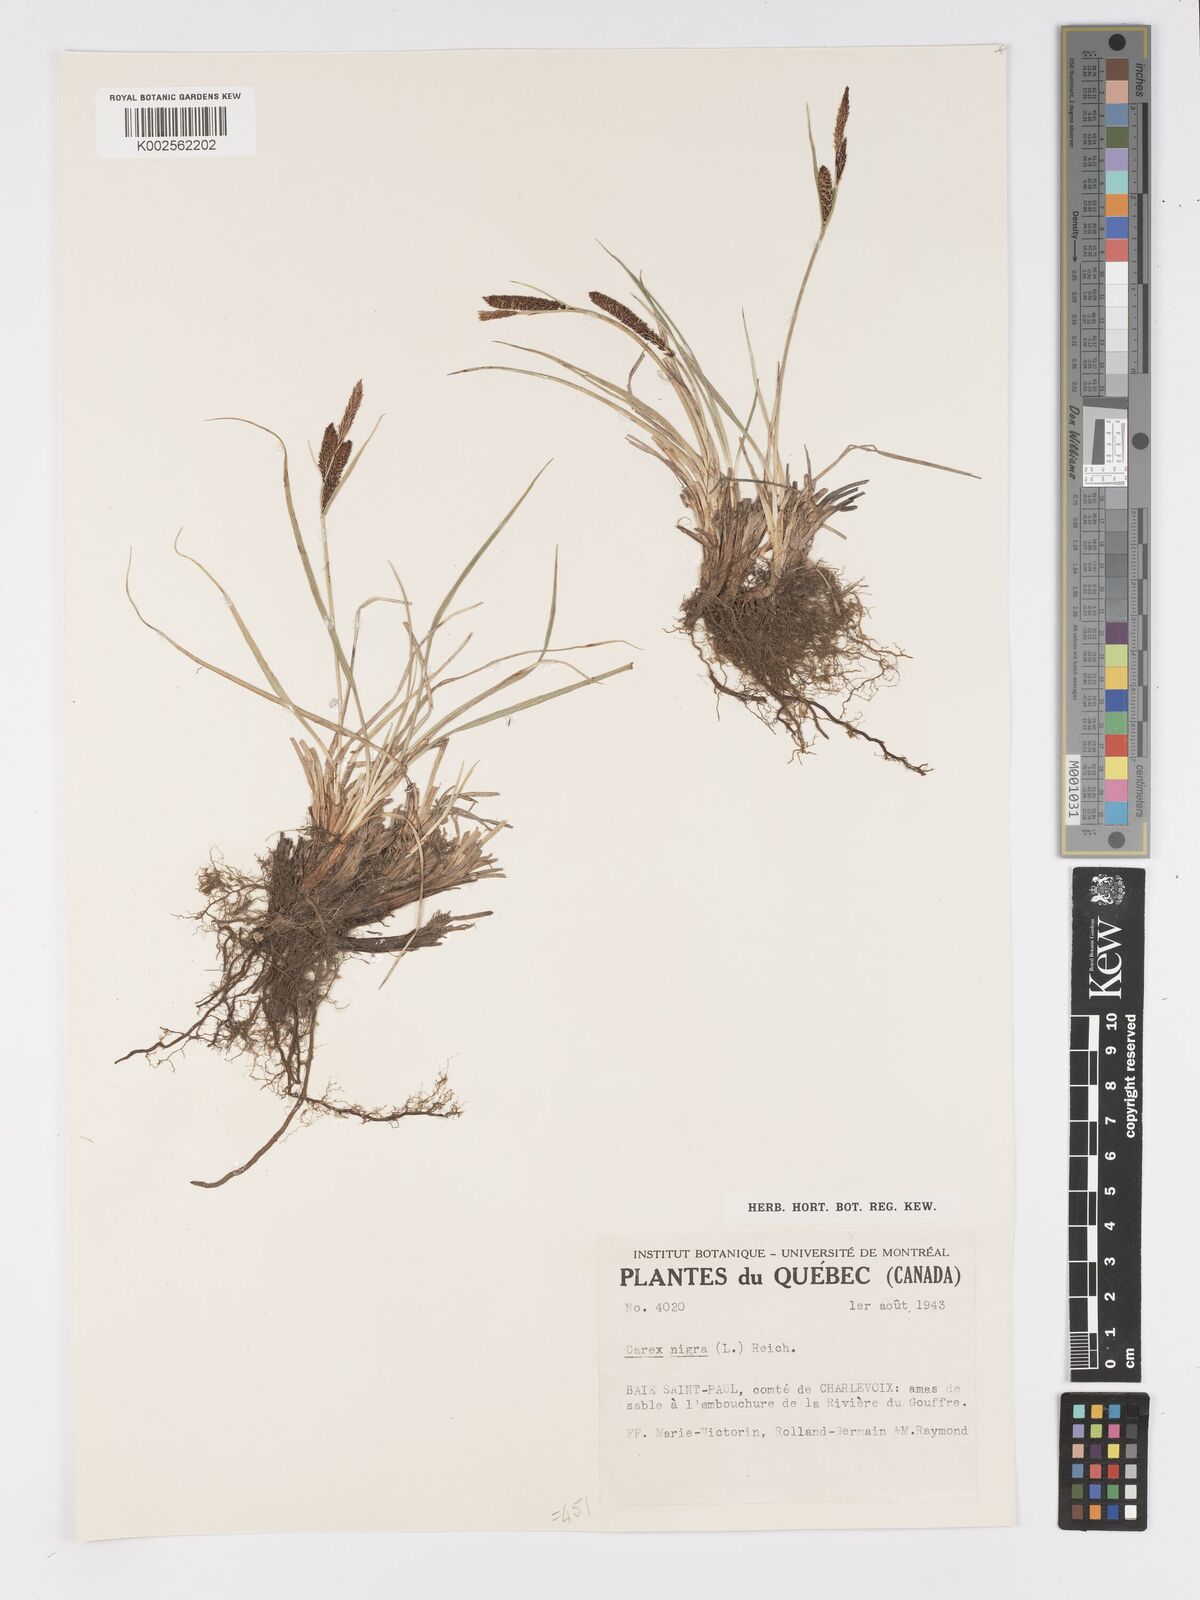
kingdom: Plantae
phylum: Tracheophyta
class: Liliopsida
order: Poales
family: Cyperaceae
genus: Carex
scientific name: Carex nigra
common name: Common sedge
